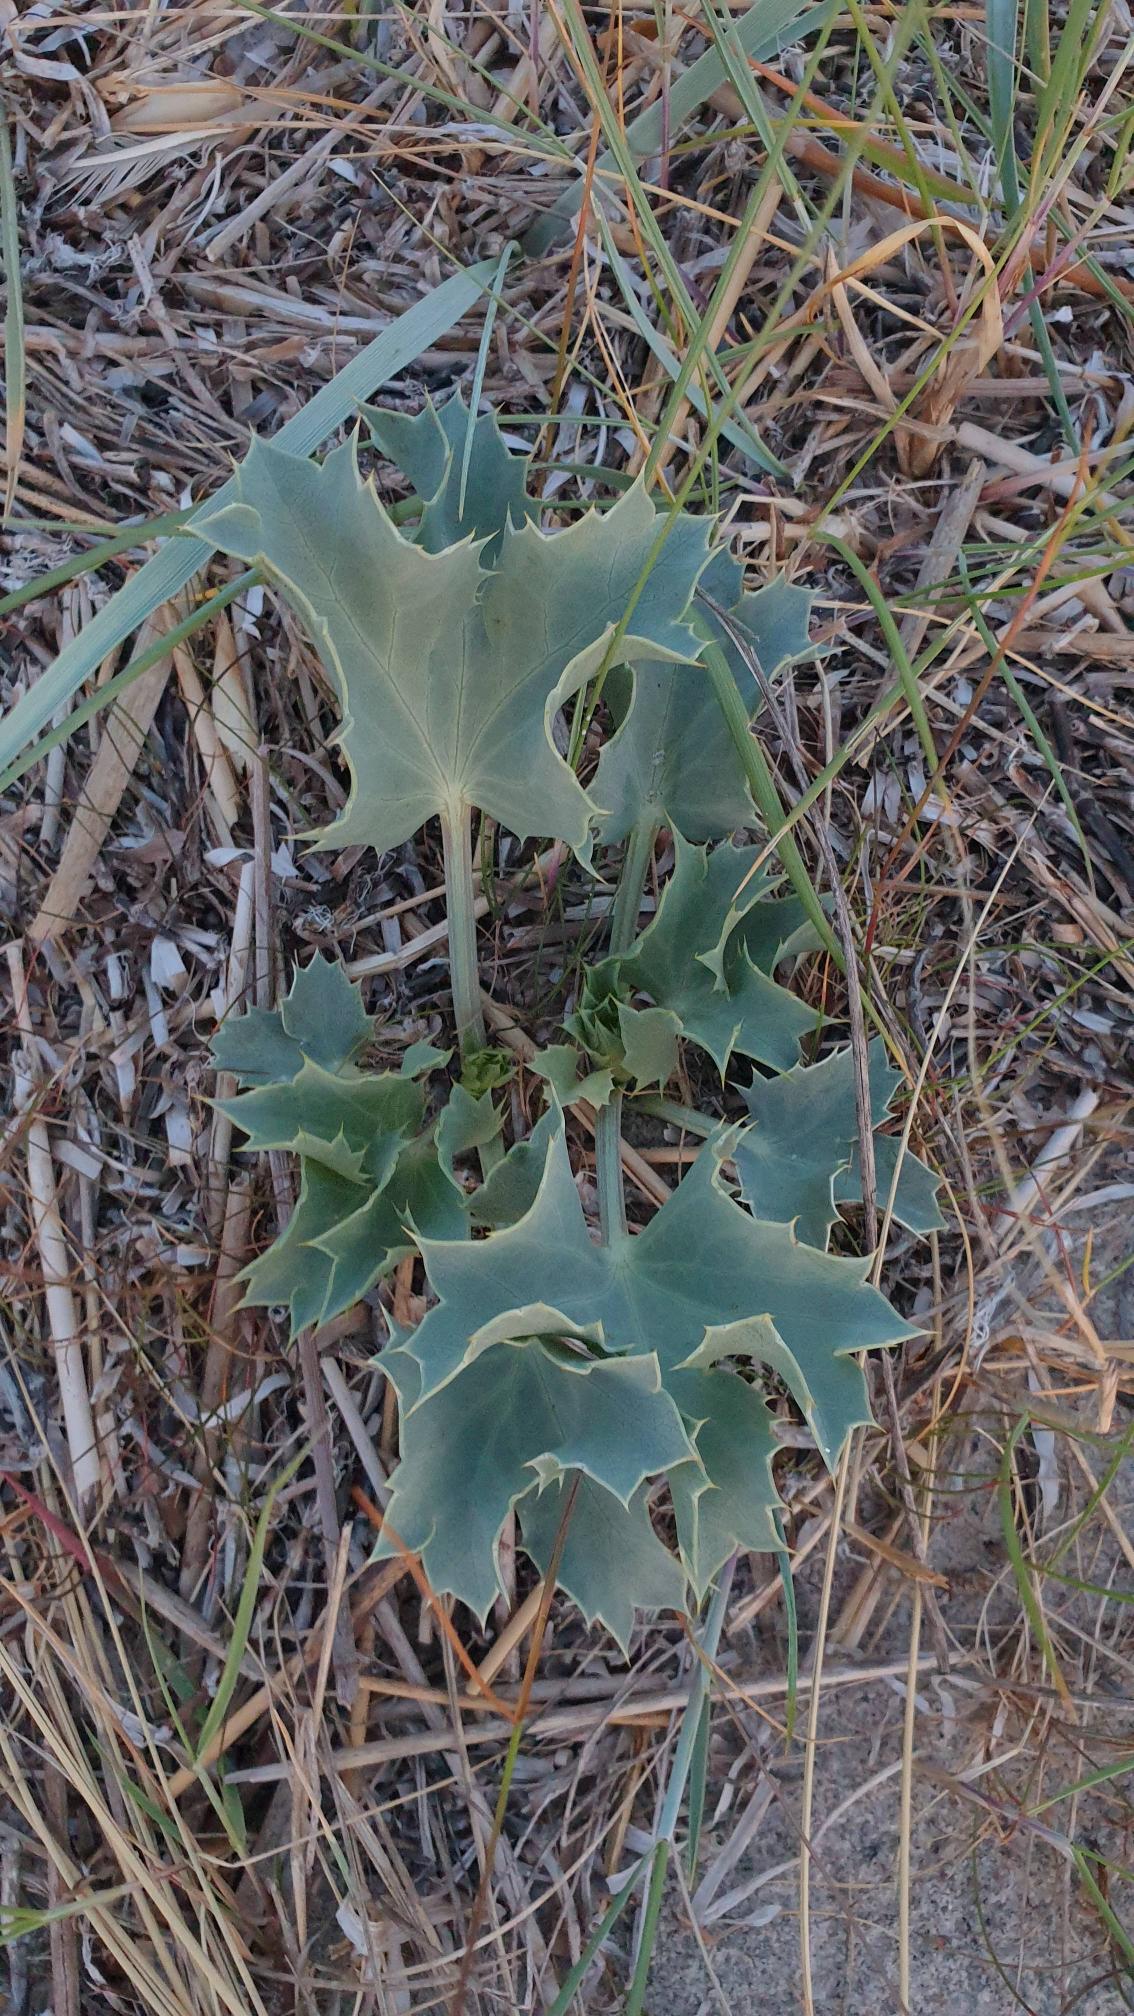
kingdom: Plantae
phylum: Tracheophyta
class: Magnoliopsida
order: Apiales
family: Apiaceae
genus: Eryngium
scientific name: Eryngium maritimum
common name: Strand-mandstro
